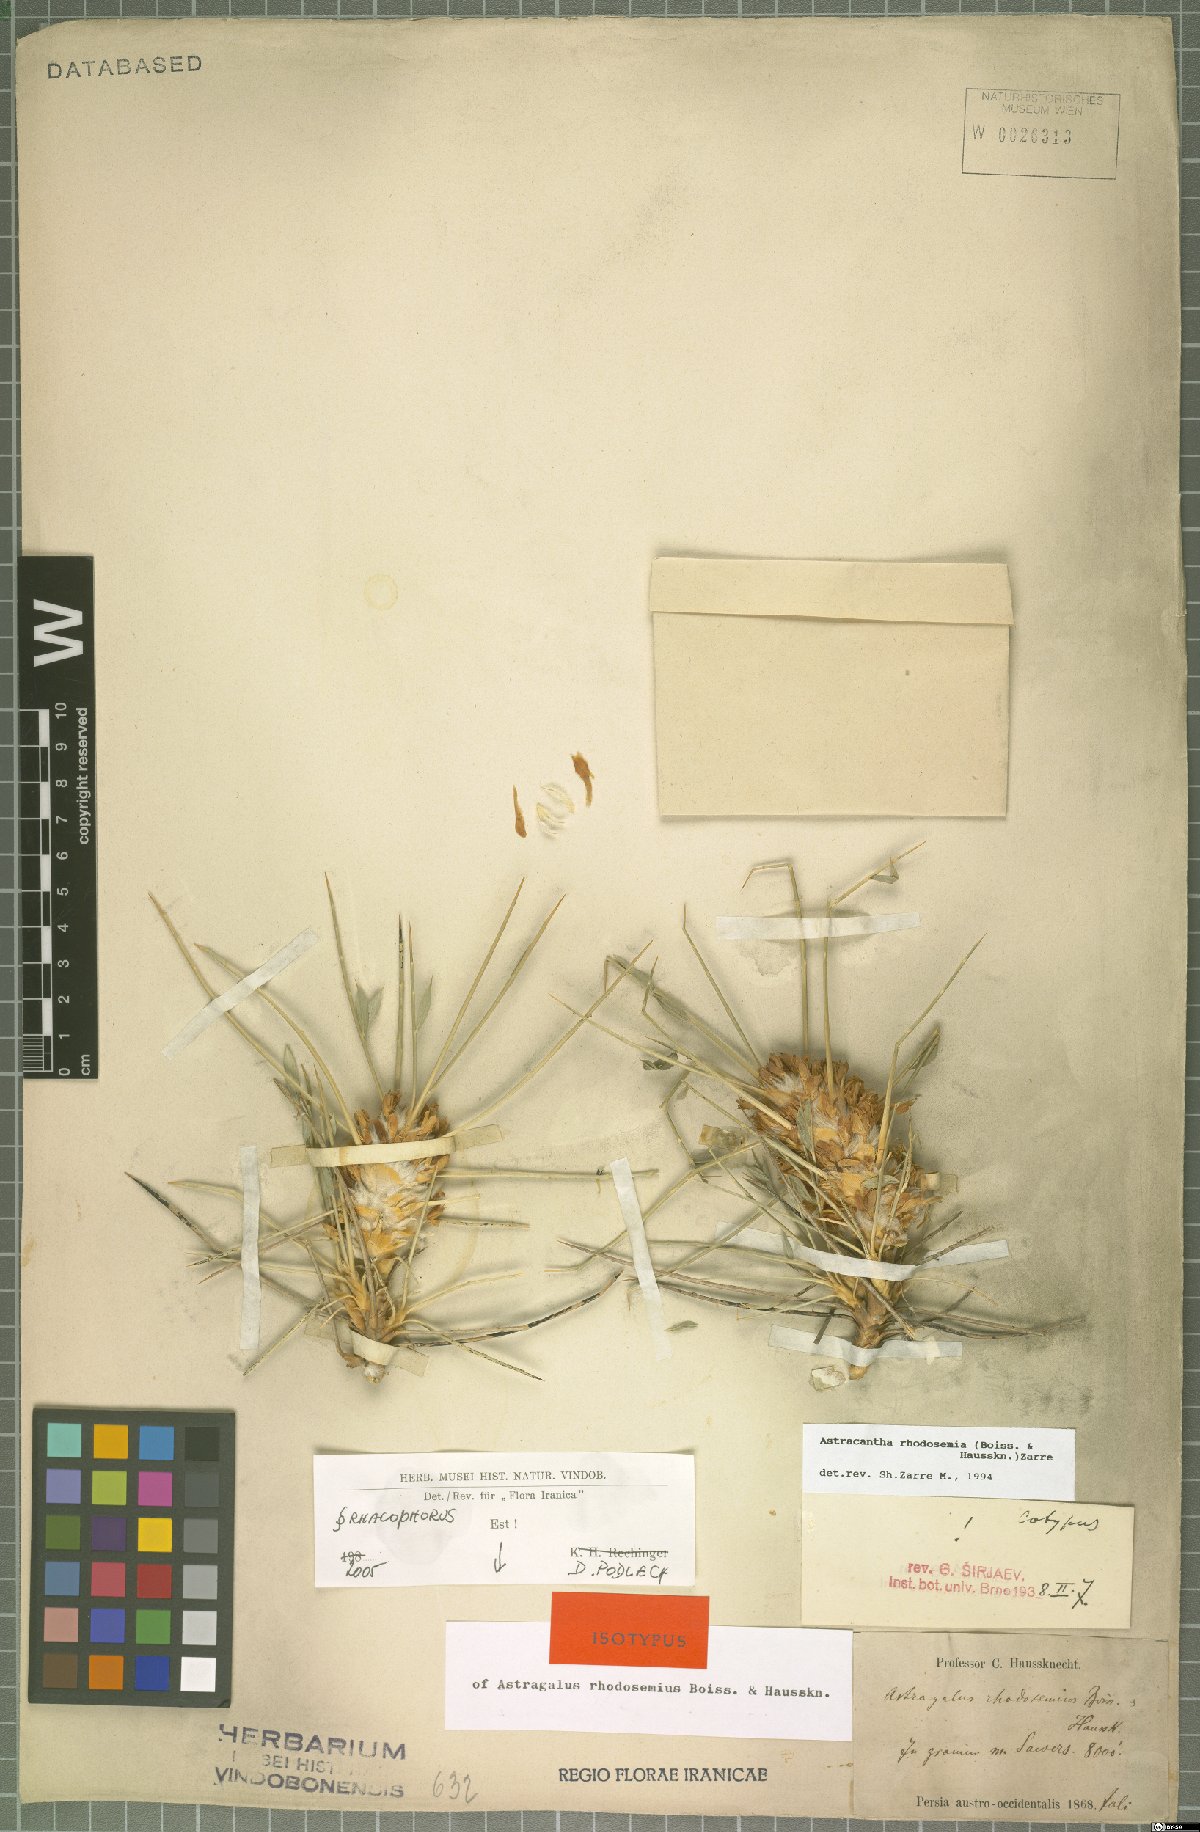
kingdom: Plantae
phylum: Tracheophyta
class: Magnoliopsida
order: Fabales
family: Fabaceae
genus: Astragalus
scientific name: Astragalus rhodosemius
